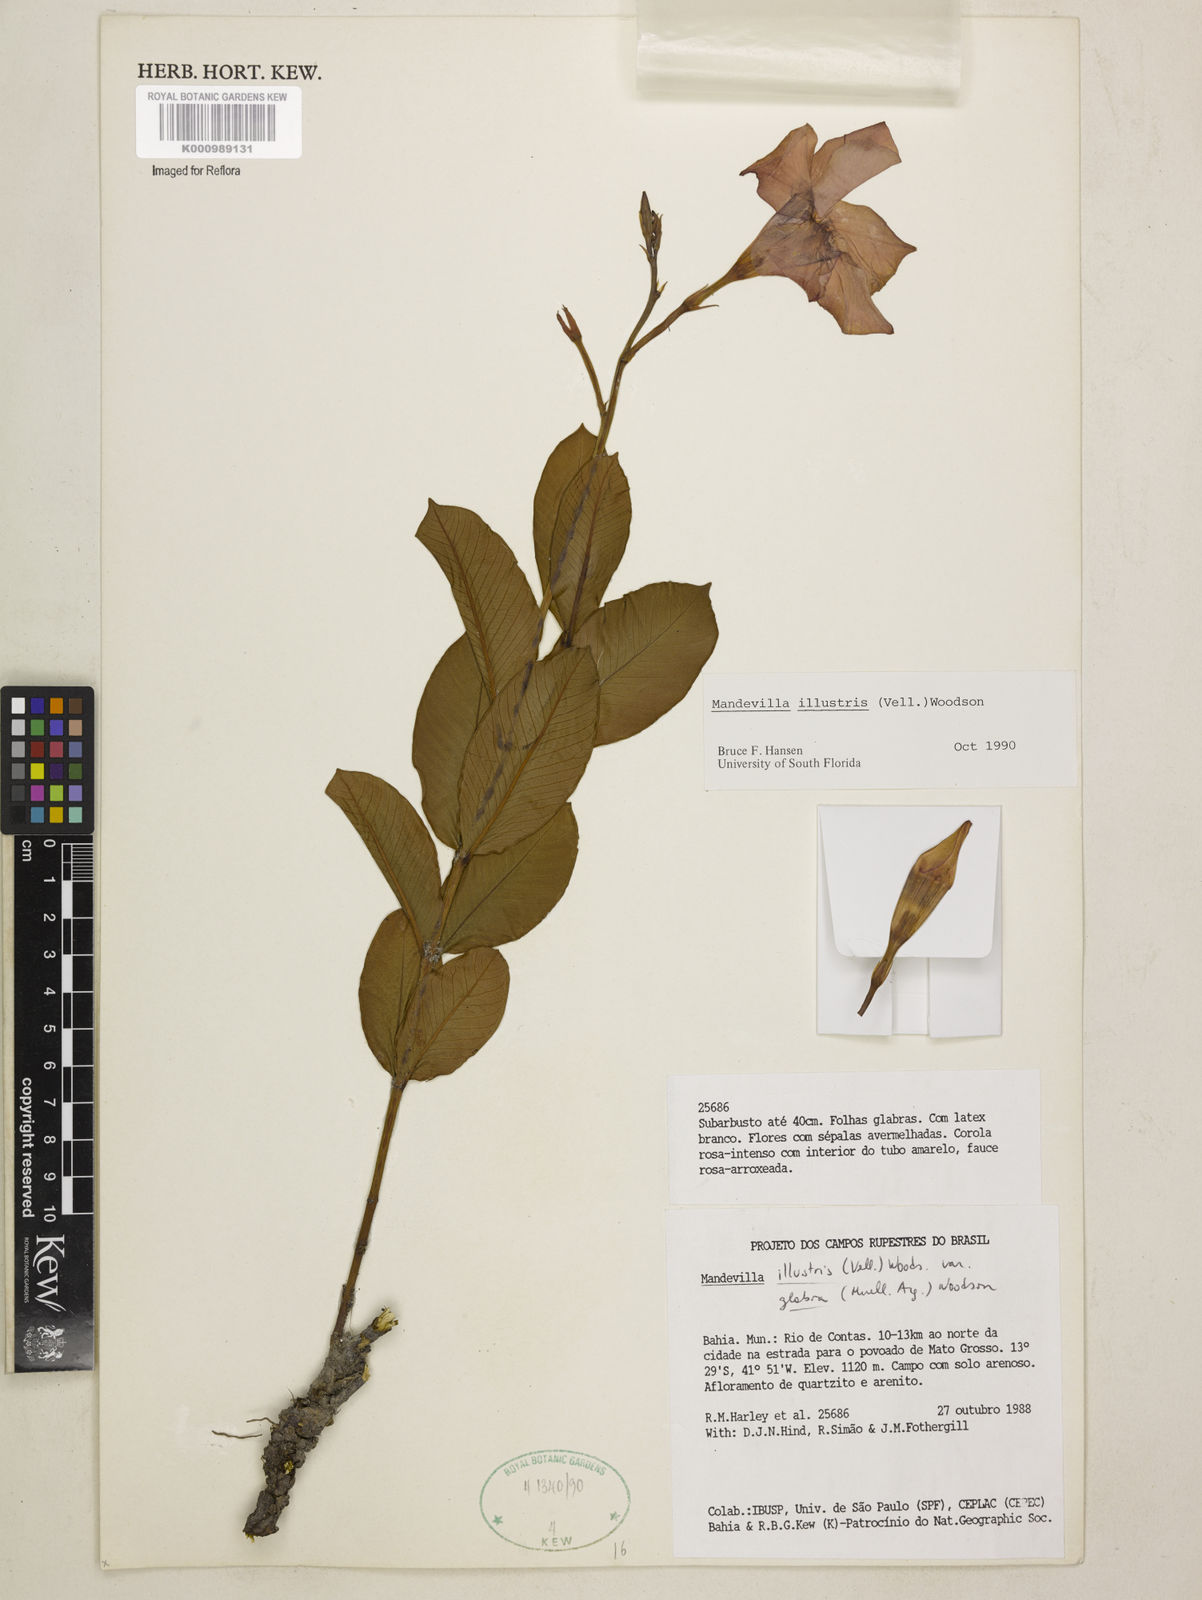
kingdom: Plantae
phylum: Tracheophyta
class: Magnoliopsida
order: Gentianales
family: Apocynaceae
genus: Mandevilla
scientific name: Mandevilla
